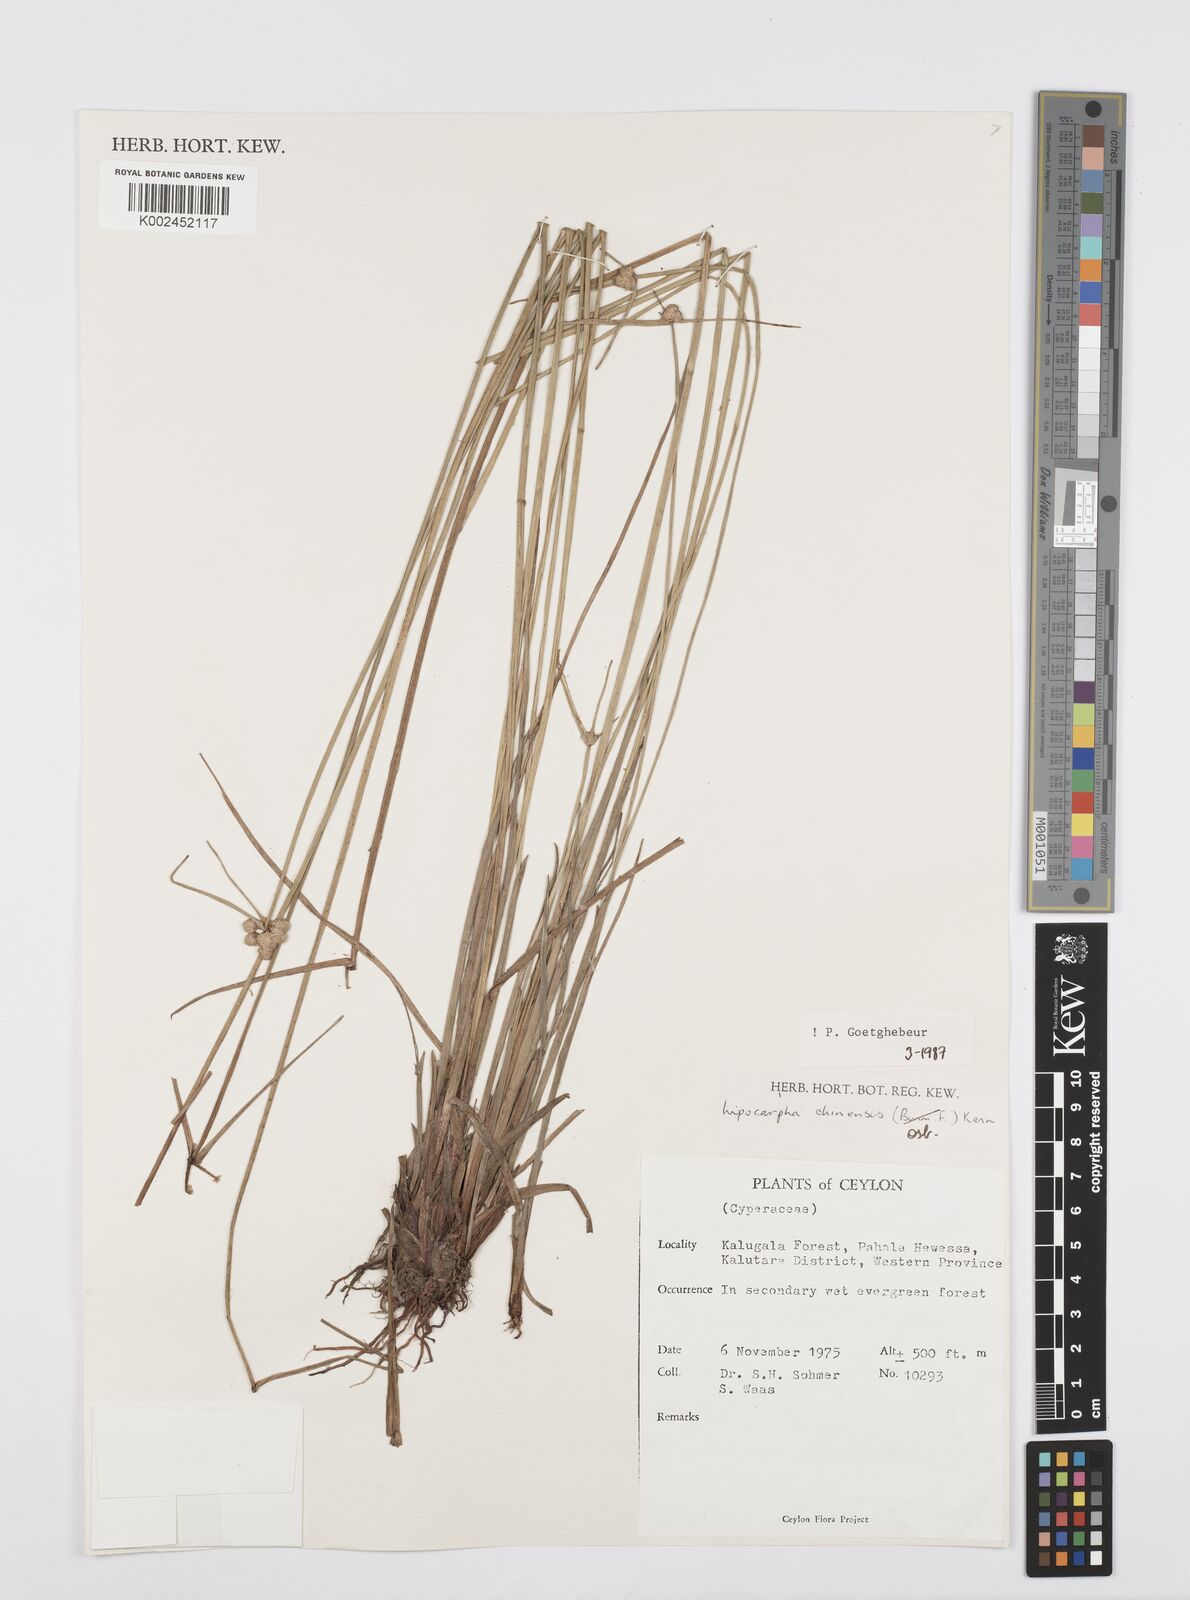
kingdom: Plantae
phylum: Tracheophyta
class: Liliopsida
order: Poales
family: Cyperaceae
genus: Cyperus
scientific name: Cyperus
